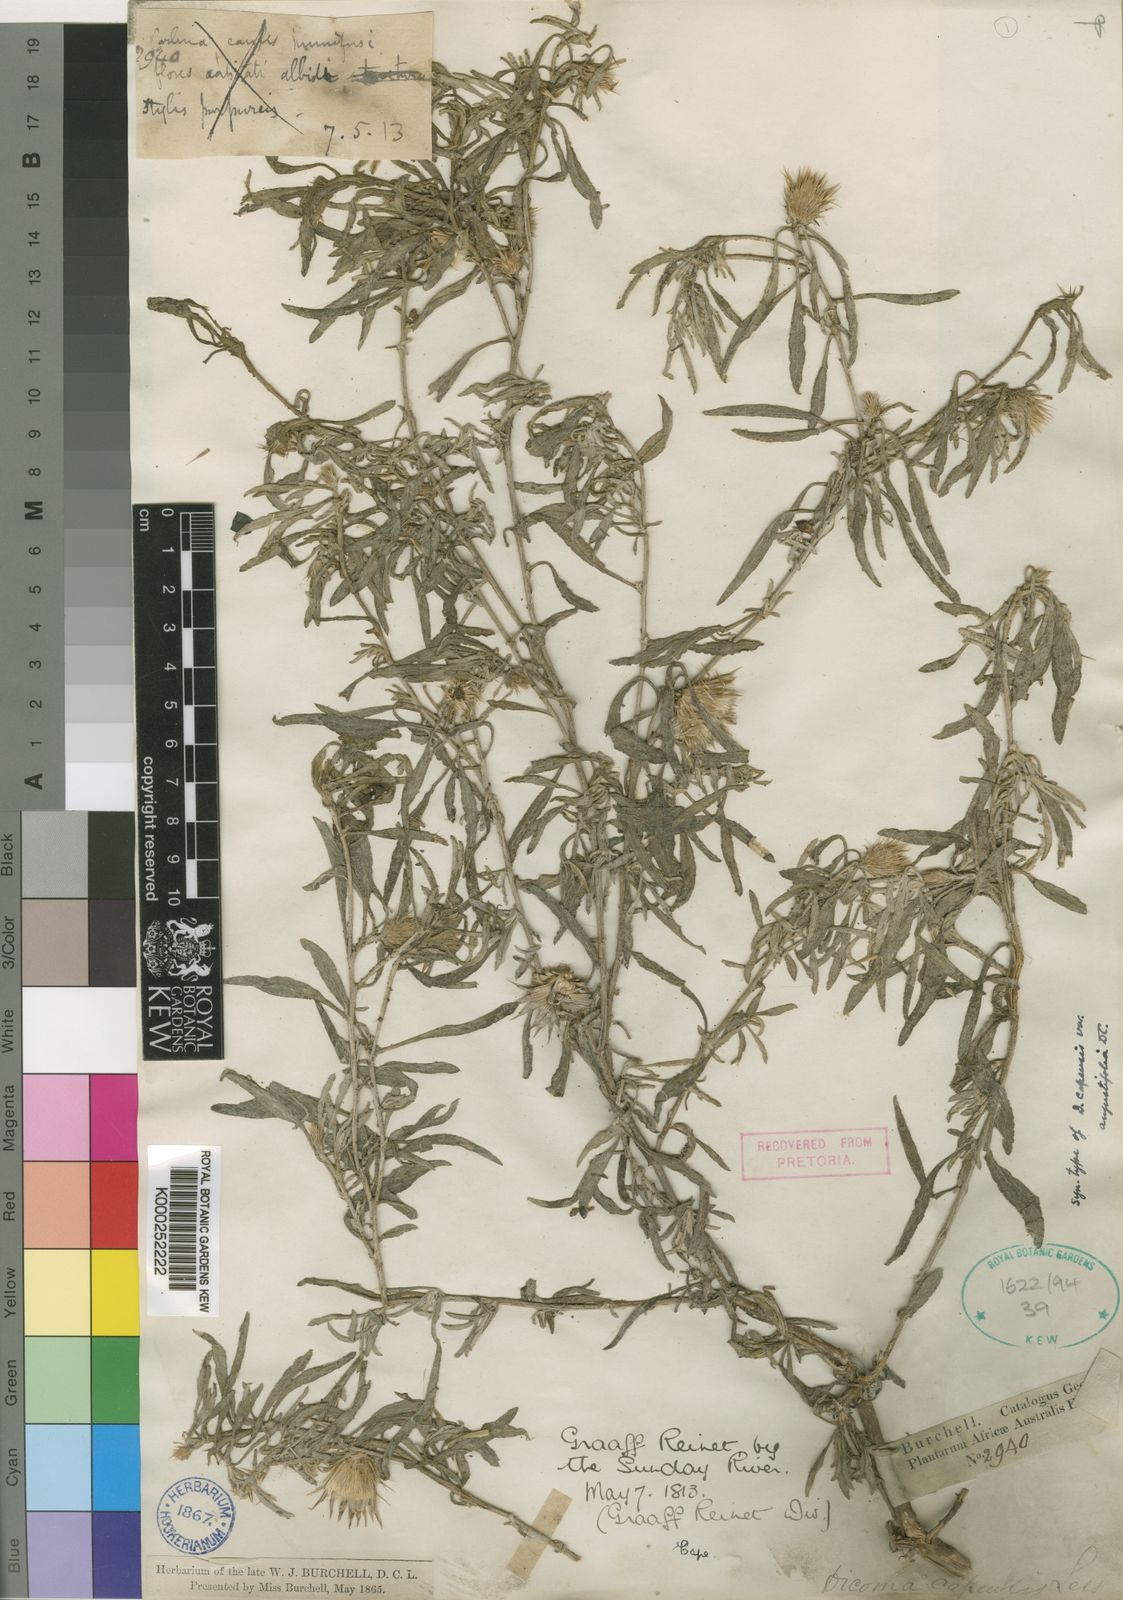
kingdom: Plantae
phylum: Tracheophyta
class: Magnoliopsida
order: Asterales
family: Asteraceae
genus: Dicoma
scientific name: Dicoma capensis
